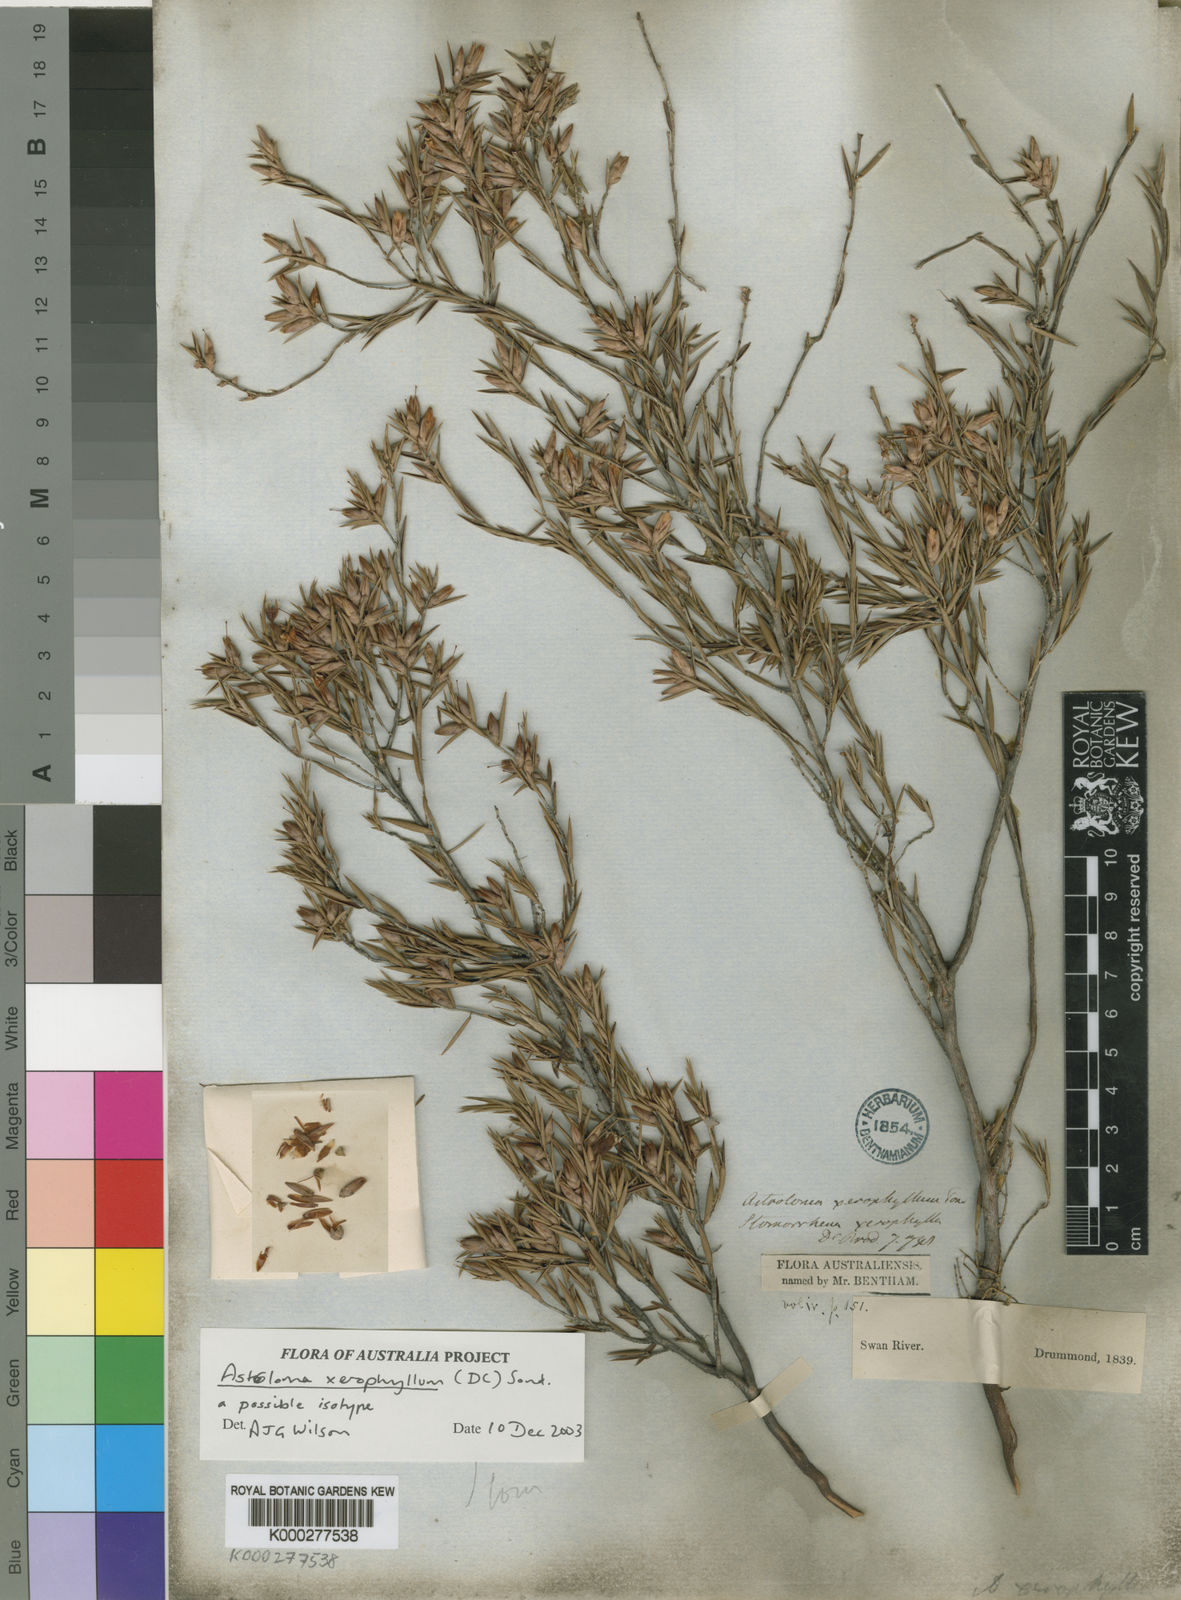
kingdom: Plantae
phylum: Tracheophyta
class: Magnoliopsida
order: Ericales
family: Ericaceae
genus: Styphelia
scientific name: Styphelia xerophylla
